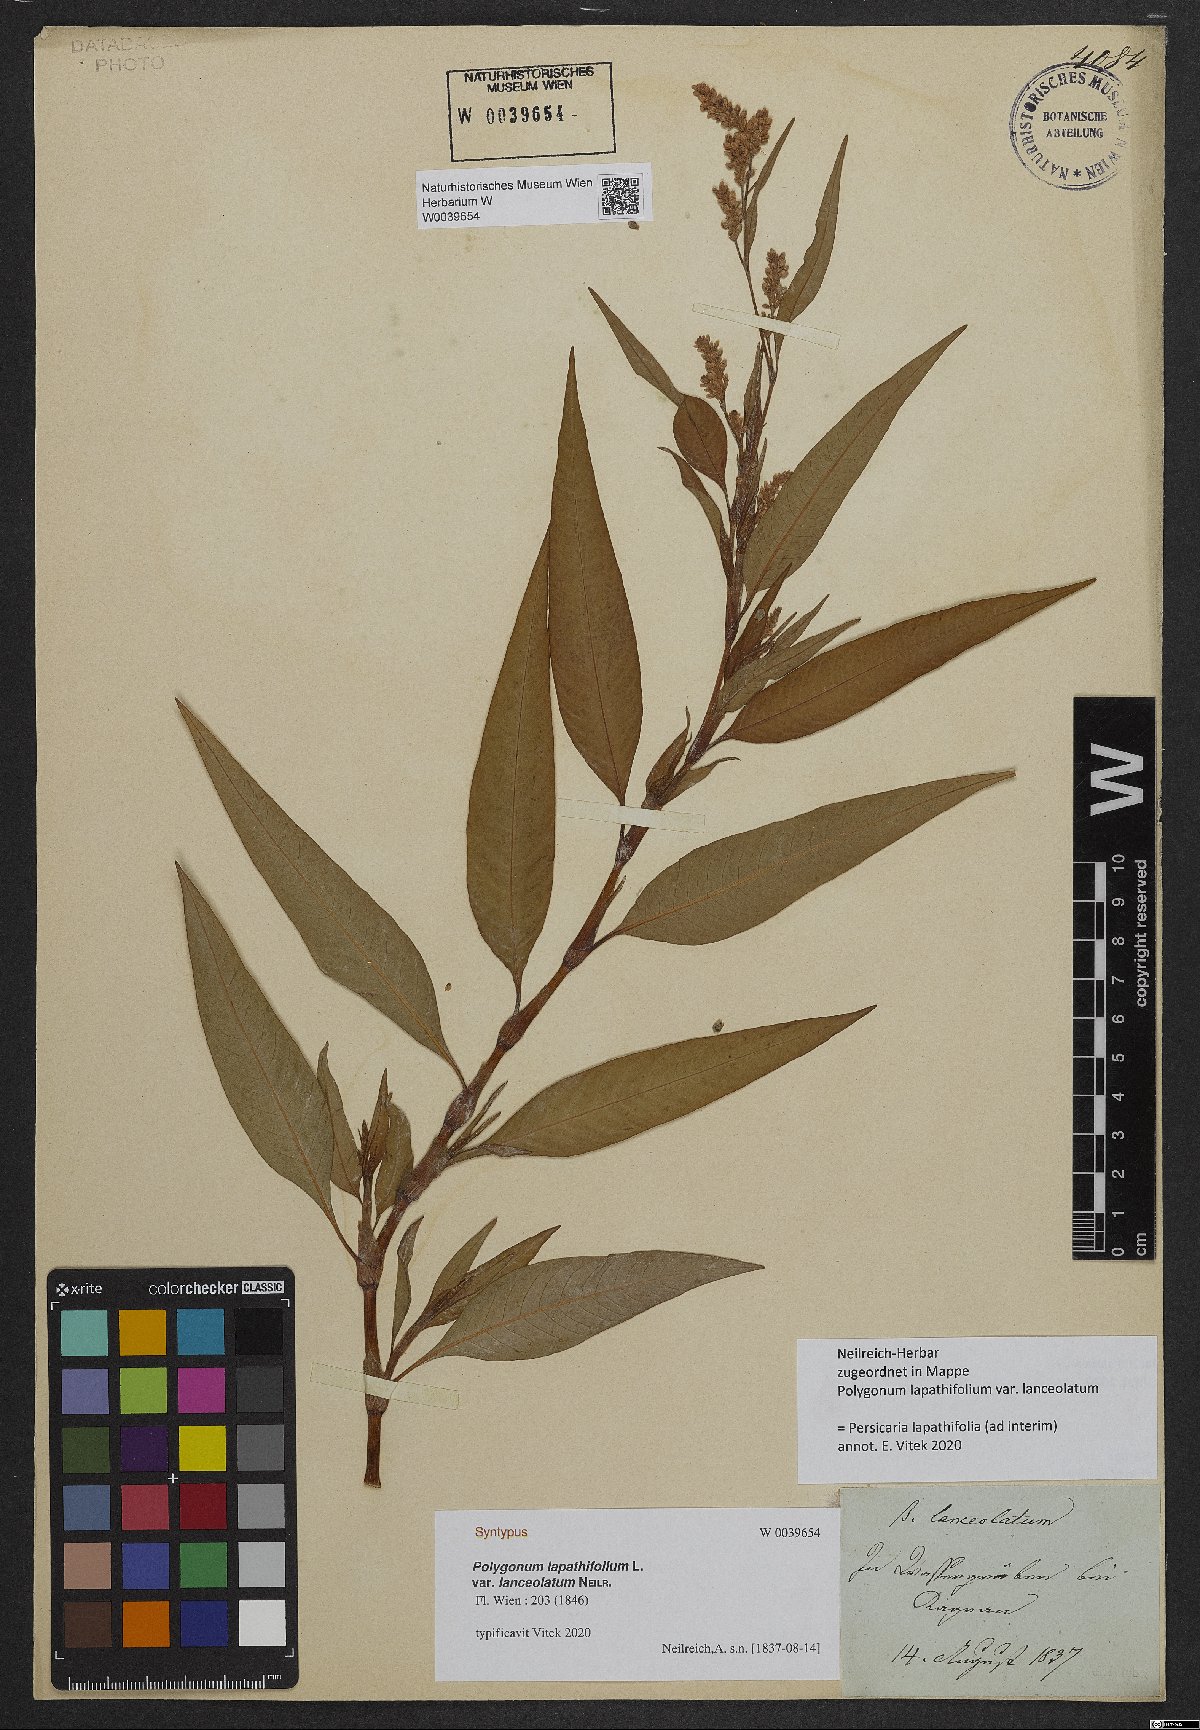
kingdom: Plantae
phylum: Tracheophyta
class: Magnoliopsida
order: Caryophyllales
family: Polygonaceae
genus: Persicaria
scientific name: Persicaria lapathifolia
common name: Curlytop knotweed
